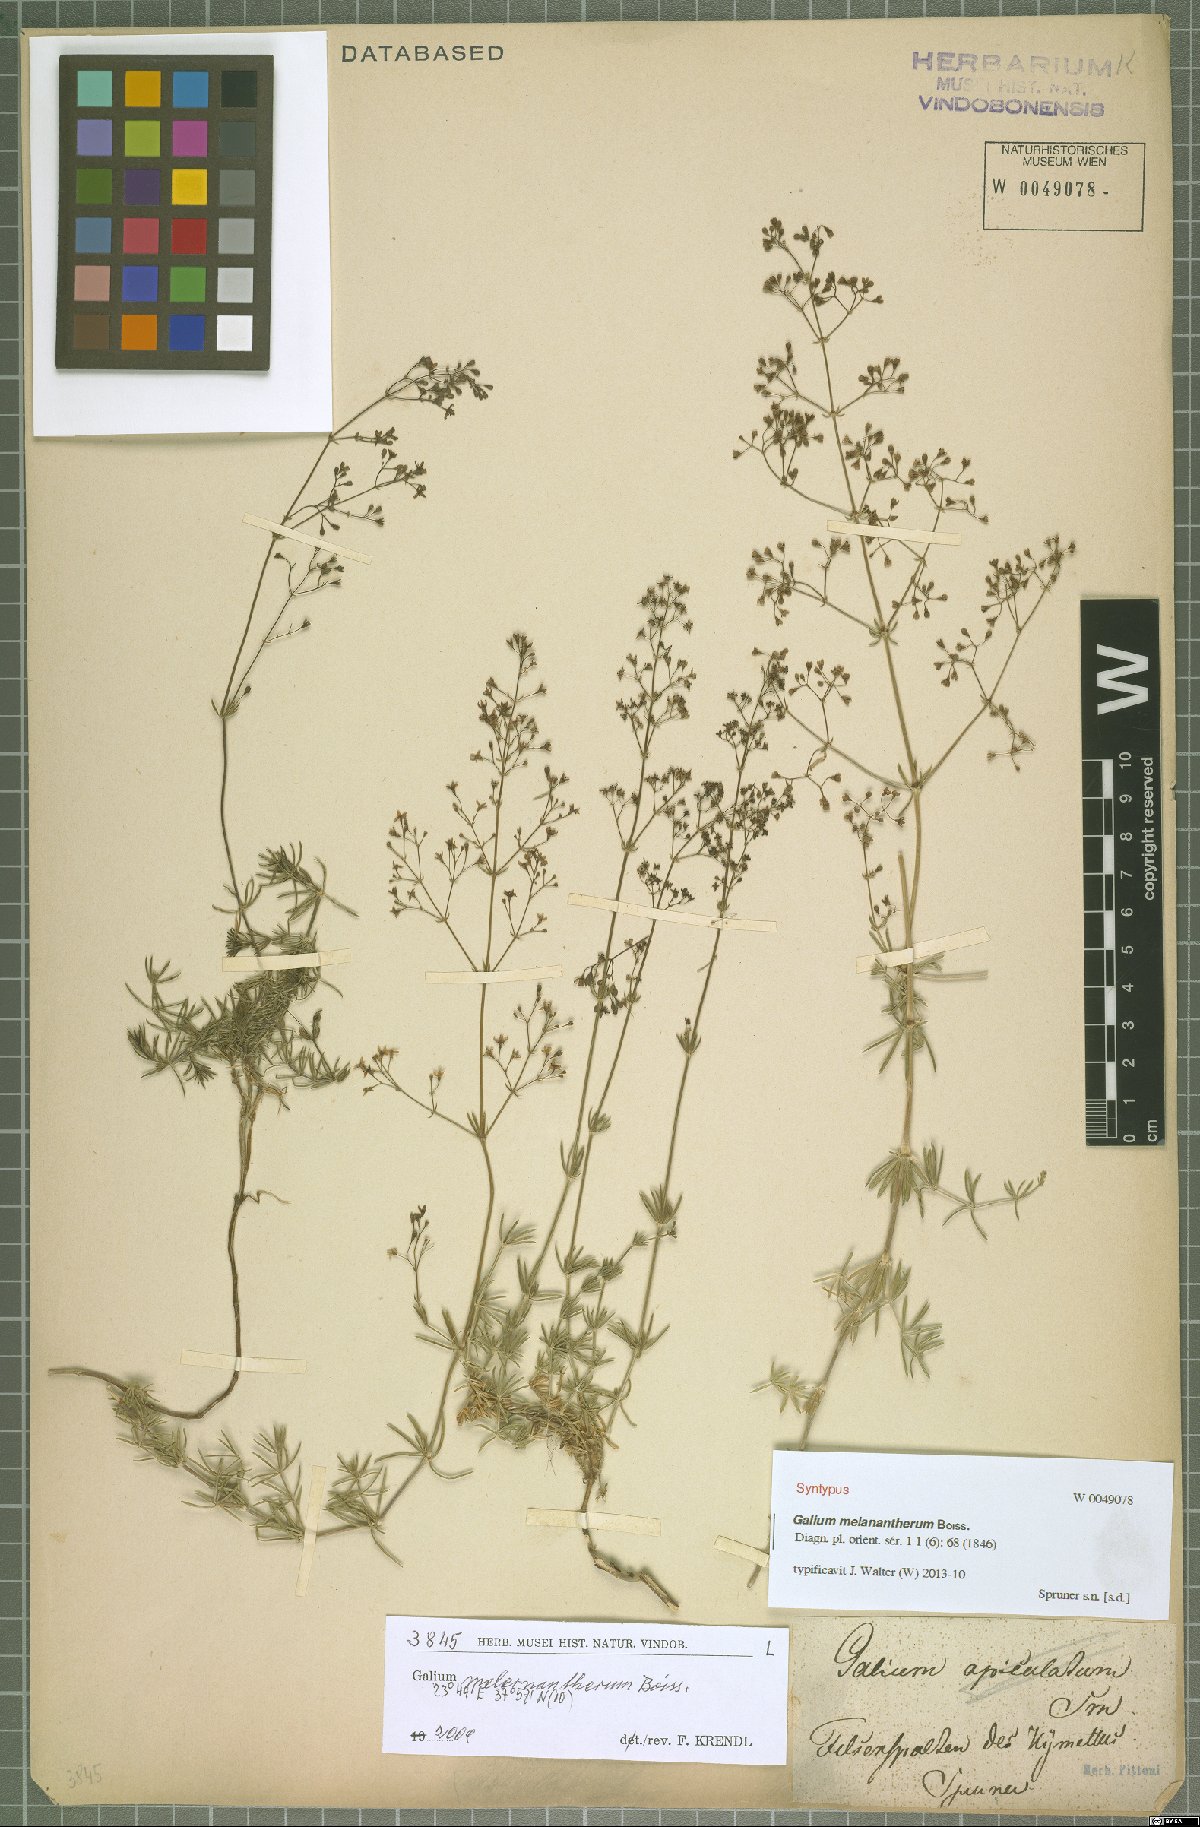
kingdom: Plantae
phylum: Tracheophyta
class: Magnoliopsida
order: Gentianales
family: Rubiaceae
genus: Galium
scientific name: Galium melanantherum
